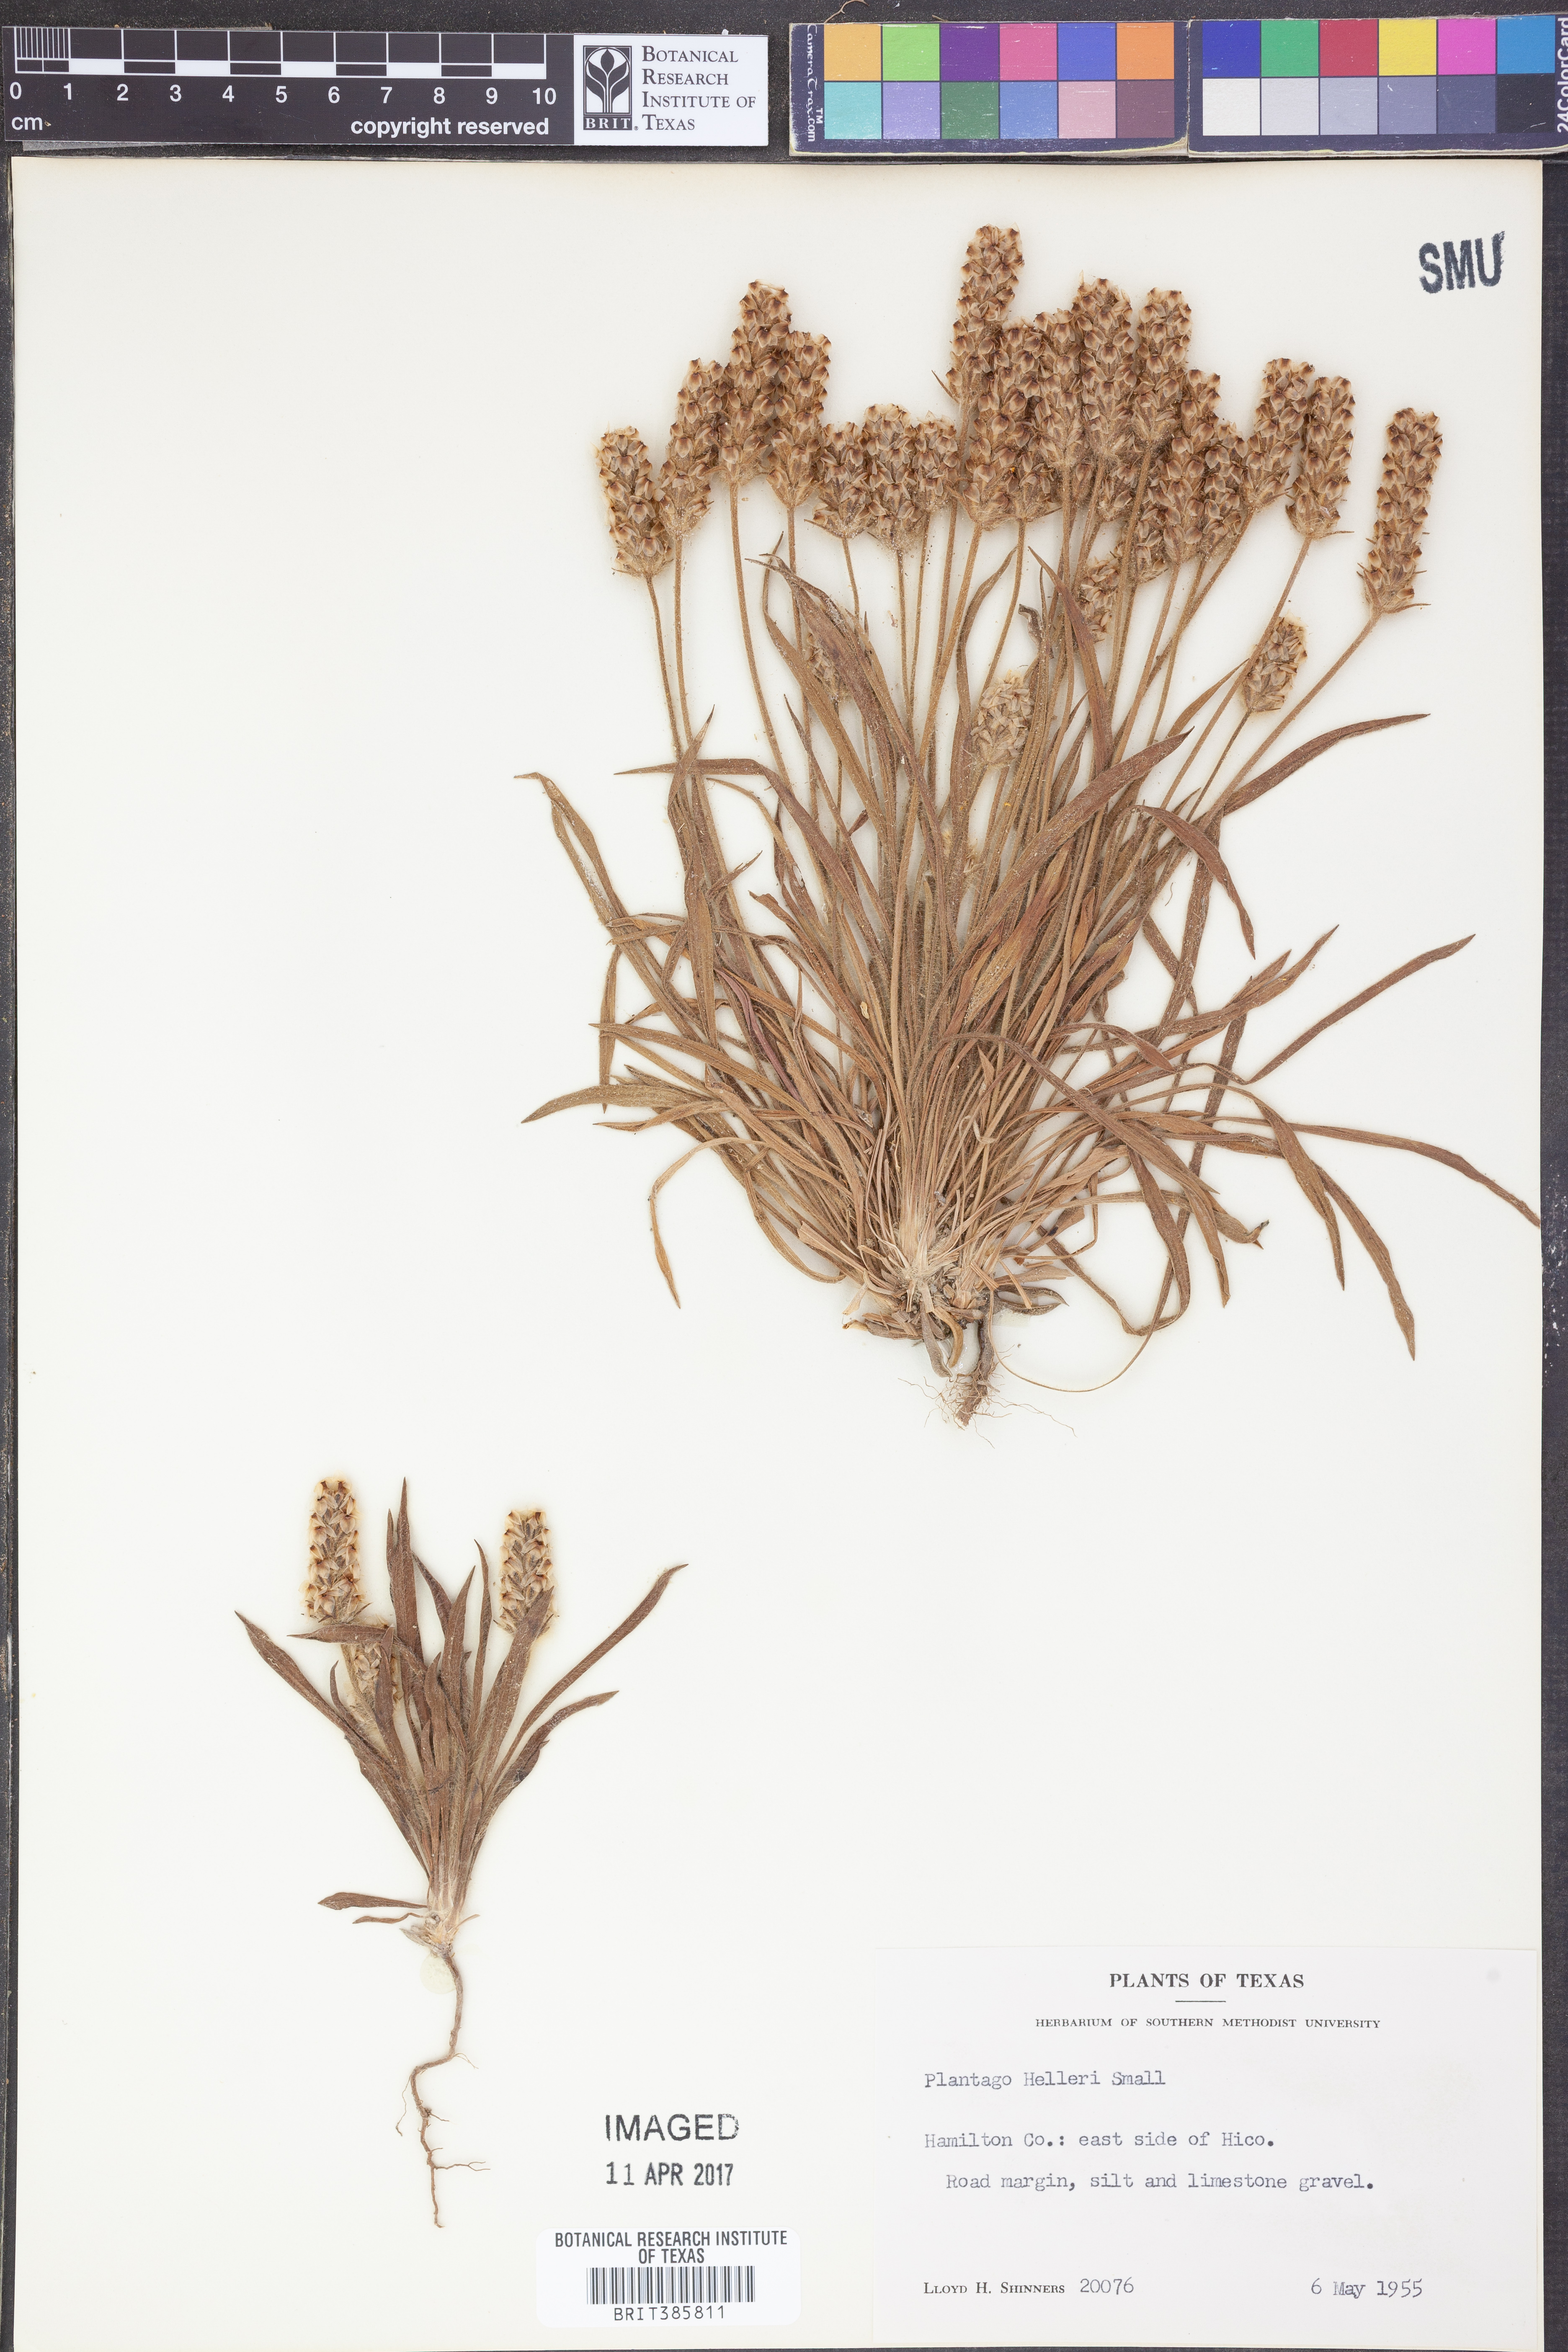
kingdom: Plantae
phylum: Tracheophyta
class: Magnoliopsida
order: Lamiales
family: Plantaginaceae
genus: Plantago
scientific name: Plantago helleri
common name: Heller's plantain
